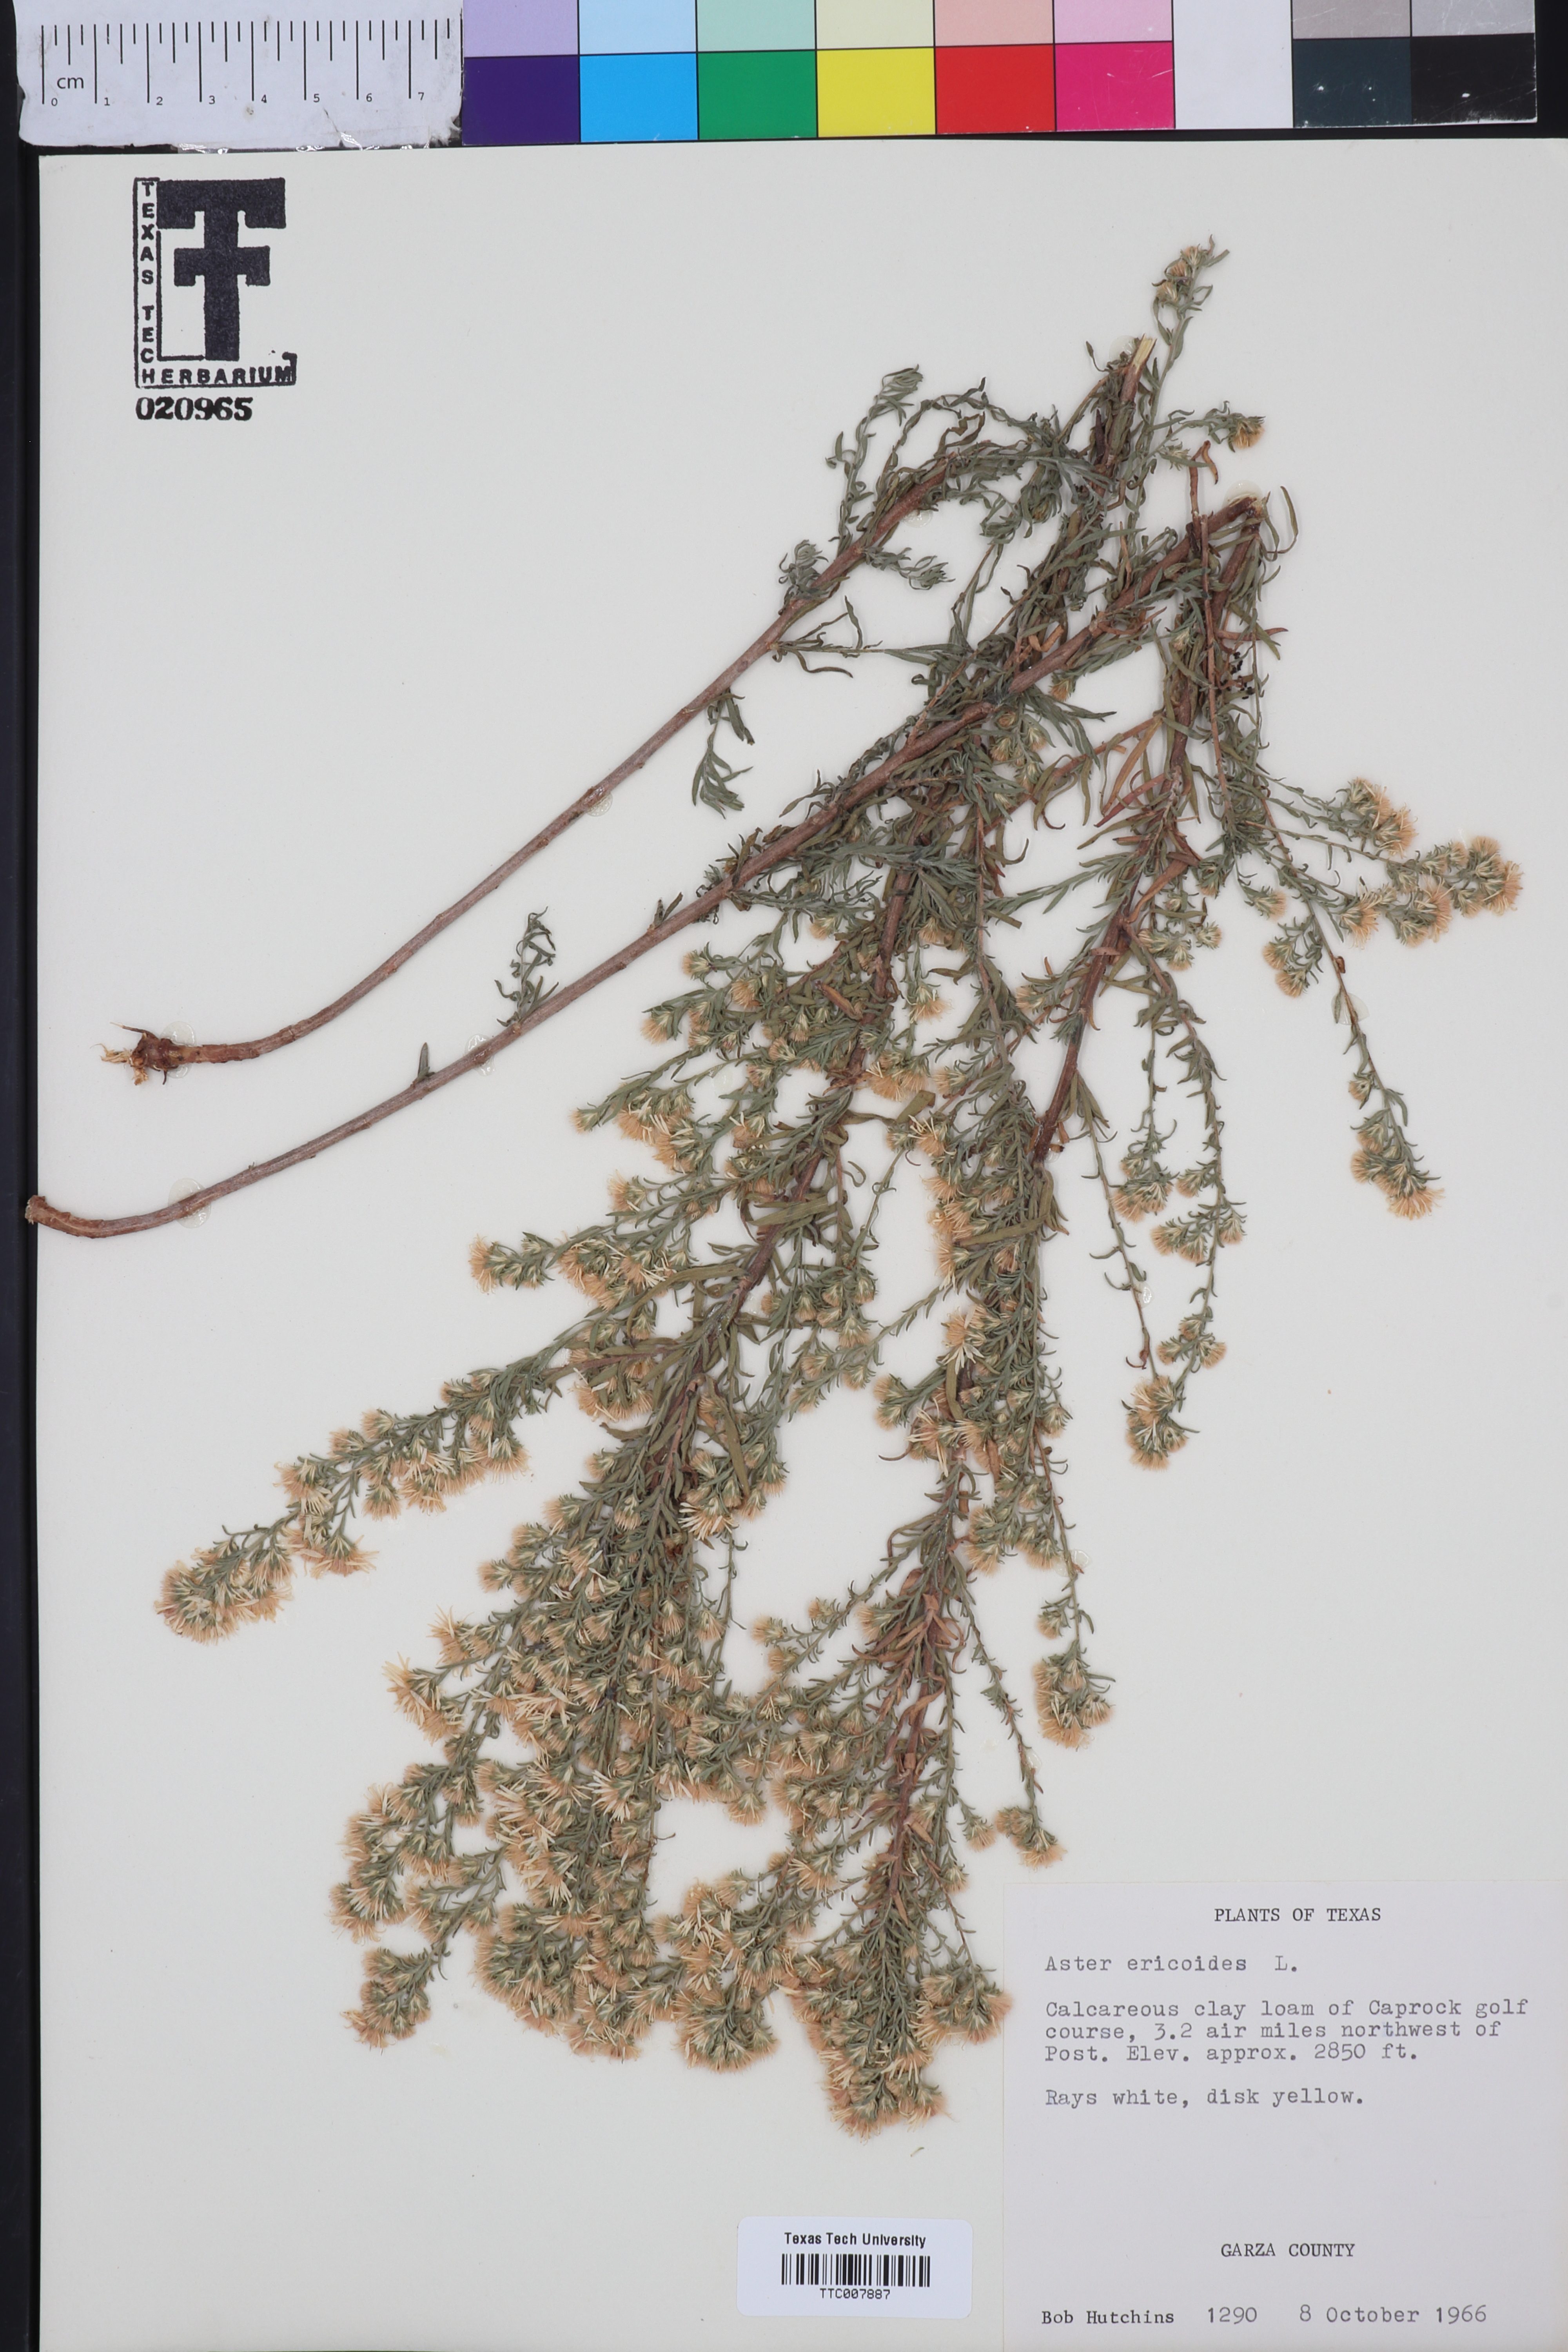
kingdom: Plantae
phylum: Tracheophyta
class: Magnoliopsida
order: Asterales
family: Asteraceae
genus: Symphyotrichum
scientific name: Symphyotrichum ericoides
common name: Heath aster
